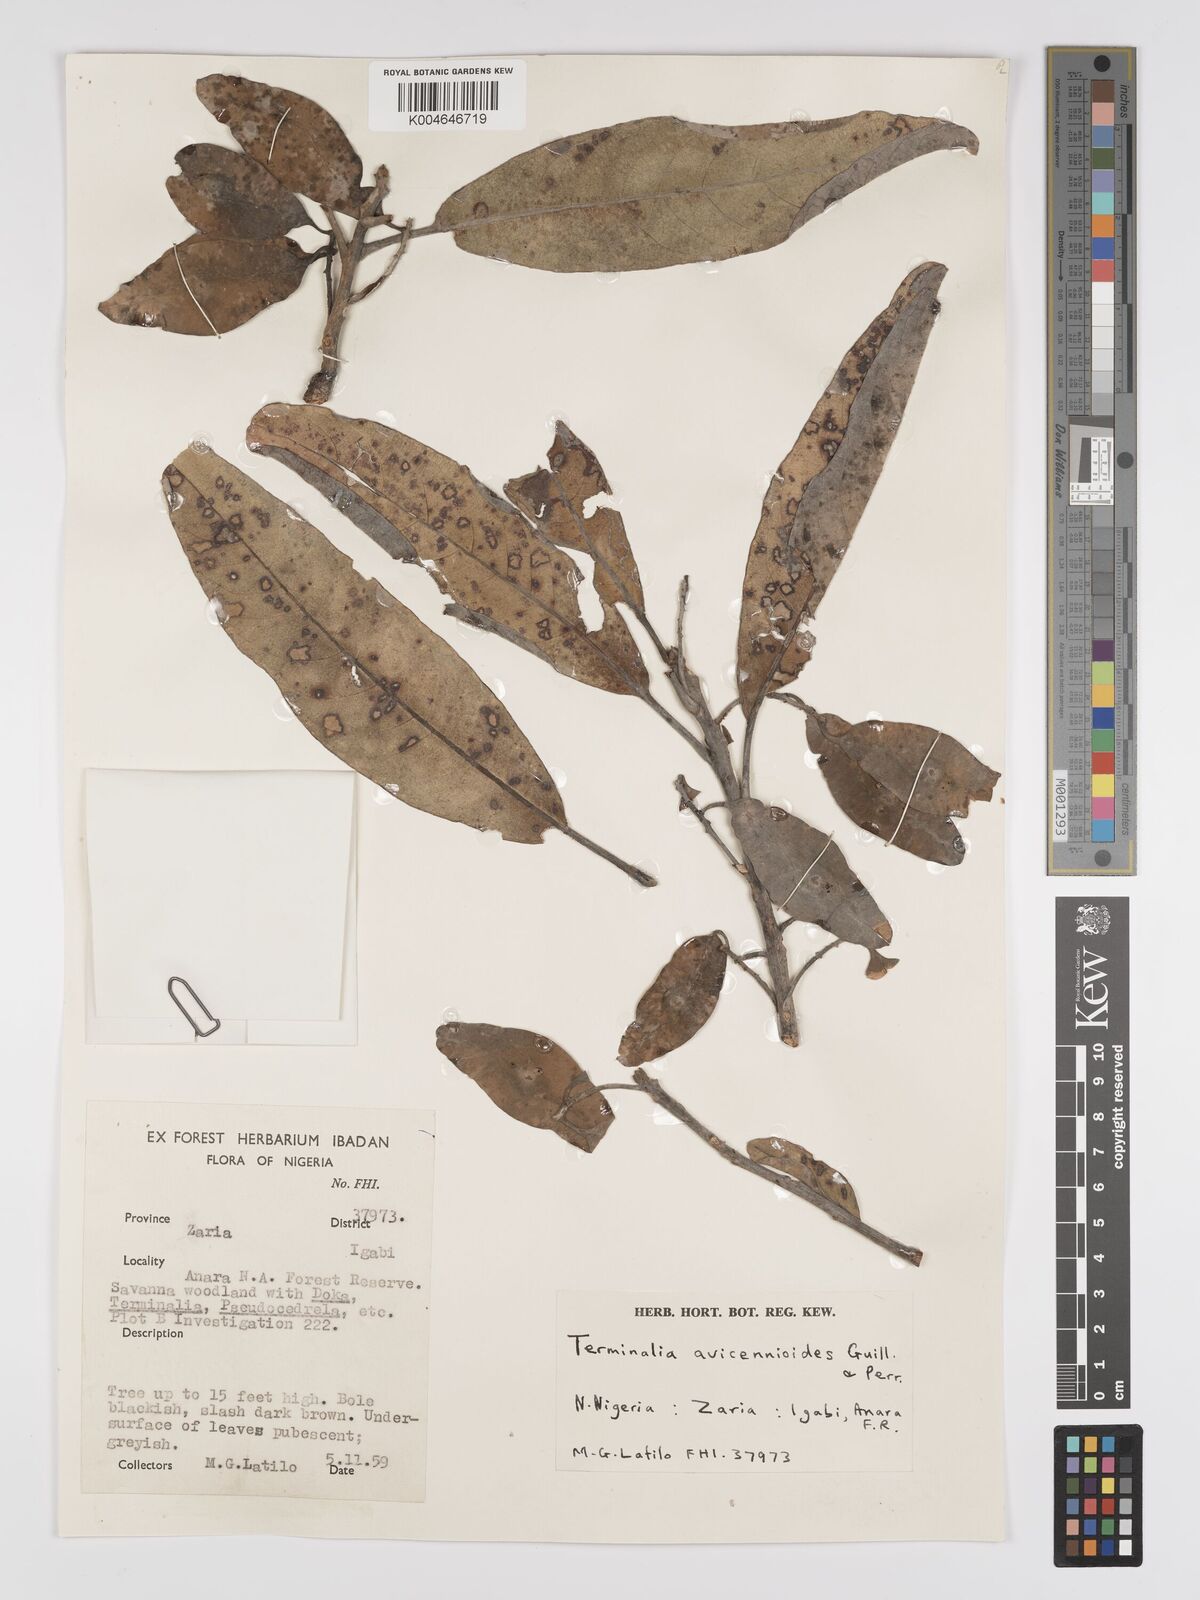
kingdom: Plantae
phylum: Tracheophyta
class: Magnoliopsida
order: Myrtales
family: Combretaceae
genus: Terminalia
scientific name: Terminalia avicennioides
